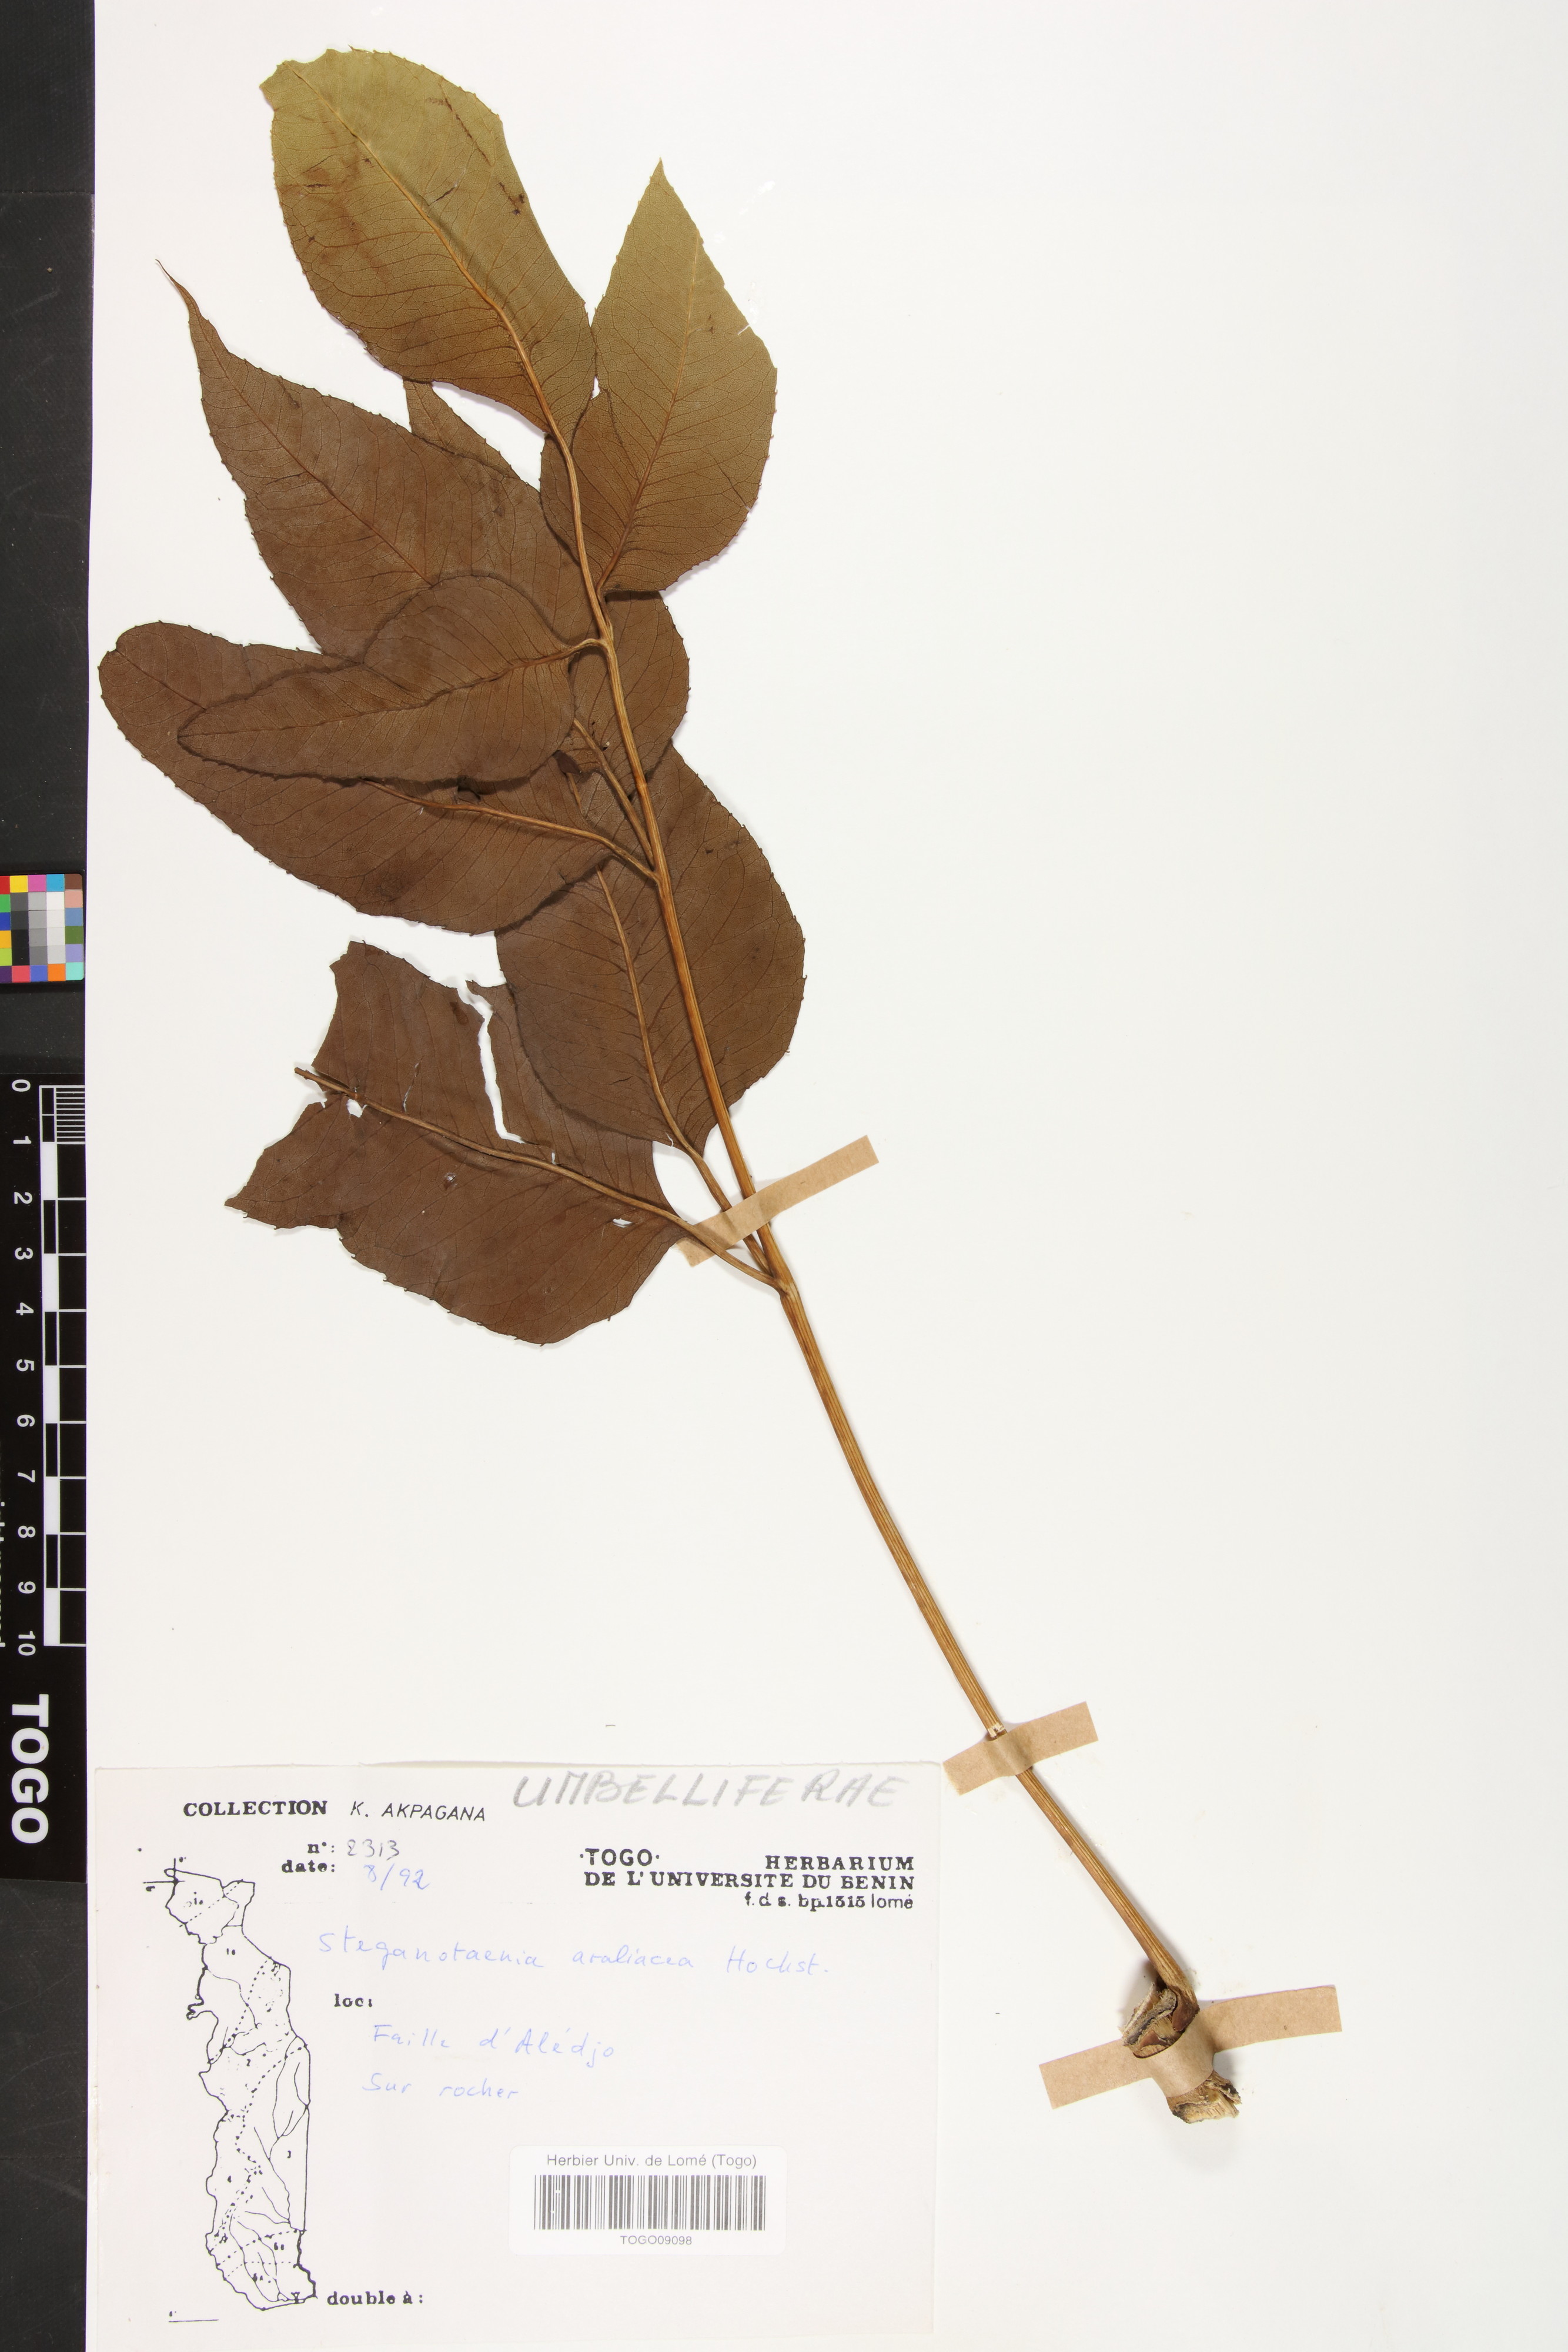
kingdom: Plantae
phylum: Tracheophyta
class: Magnoliopsida
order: Apiales
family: Apiaceae
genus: Steganotaenia
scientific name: Steganotaenia araliacea
